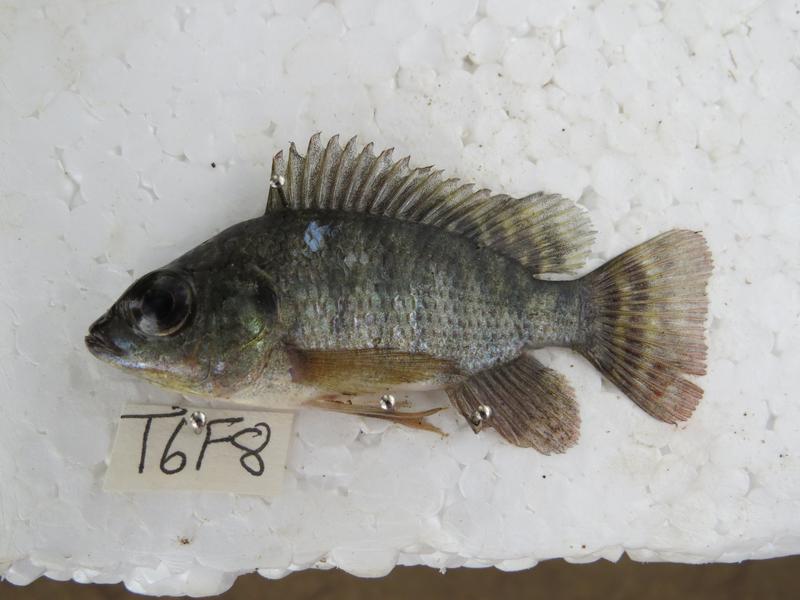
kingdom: Animalia
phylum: Chordata
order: Perciformes
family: Cichlidae
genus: Oreochromis
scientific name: Oreochromis niloticus
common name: Nile tilapia
